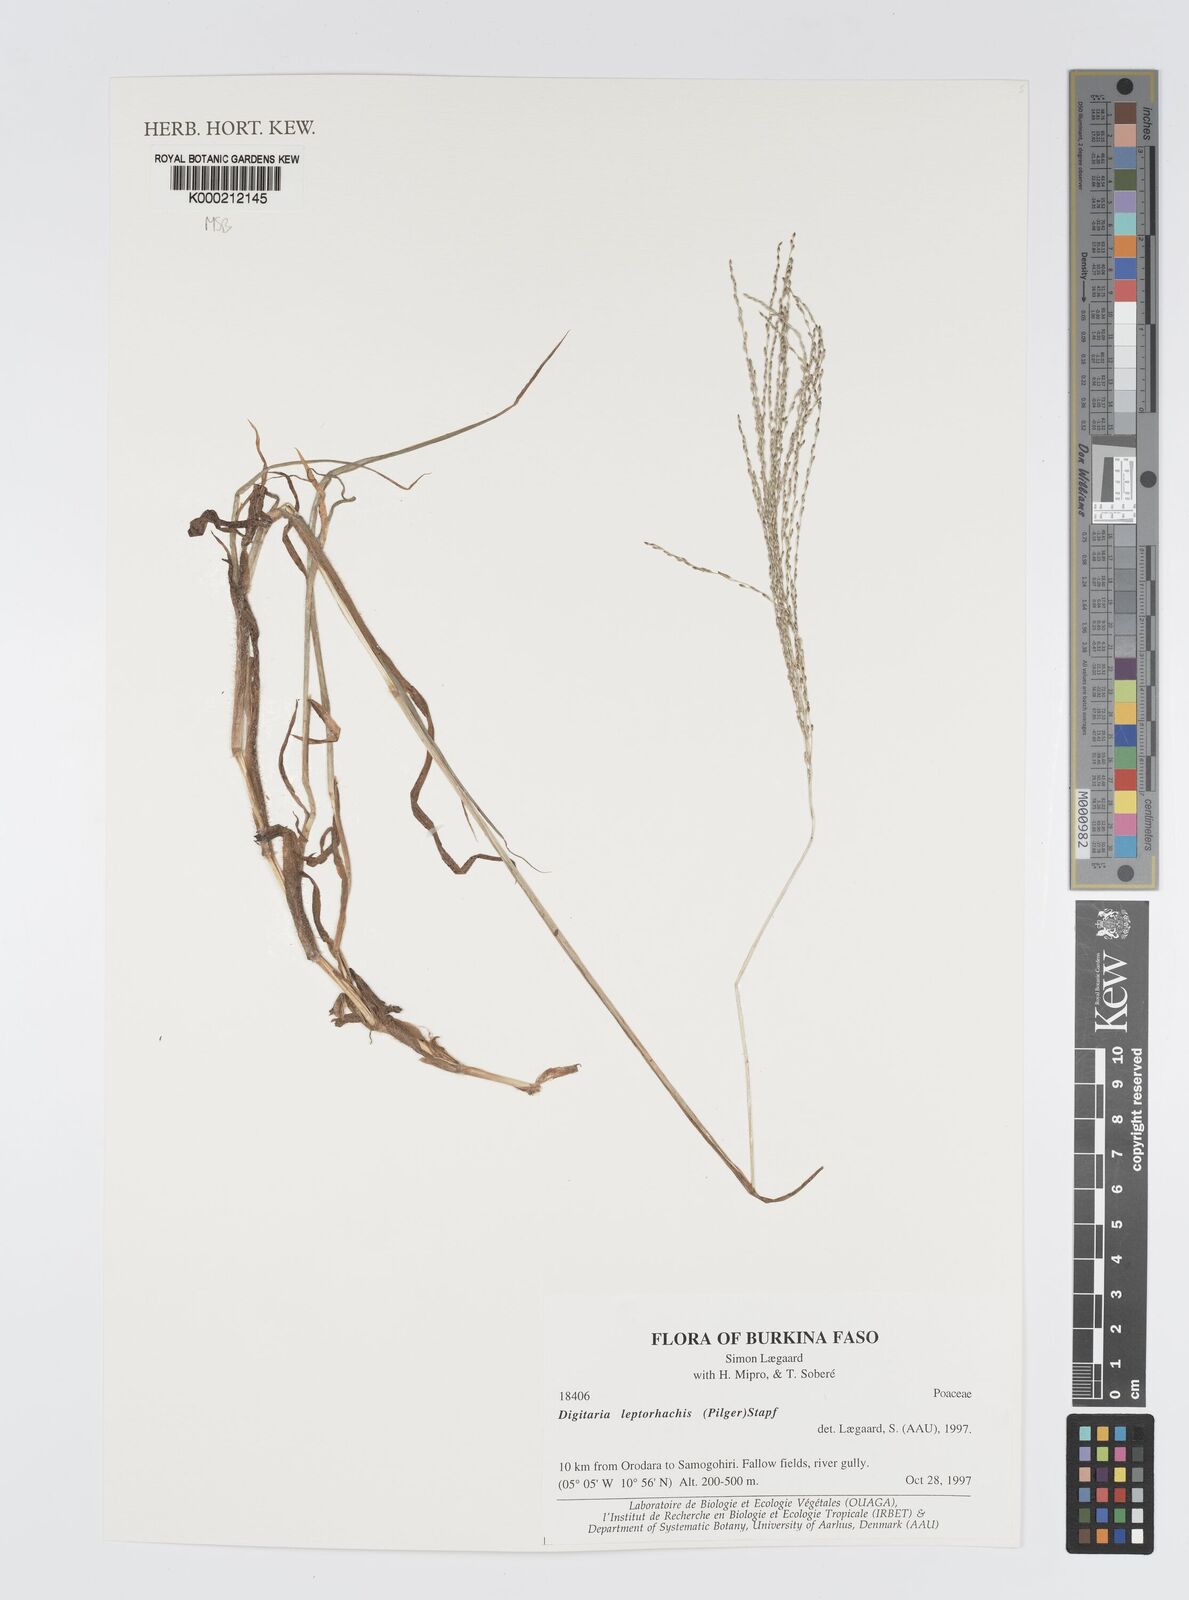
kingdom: Plantae
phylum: Tracheophyta
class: Liliopsida
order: Poales
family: Poaceae
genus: Digitaria
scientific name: Digitaria leptorhachis
